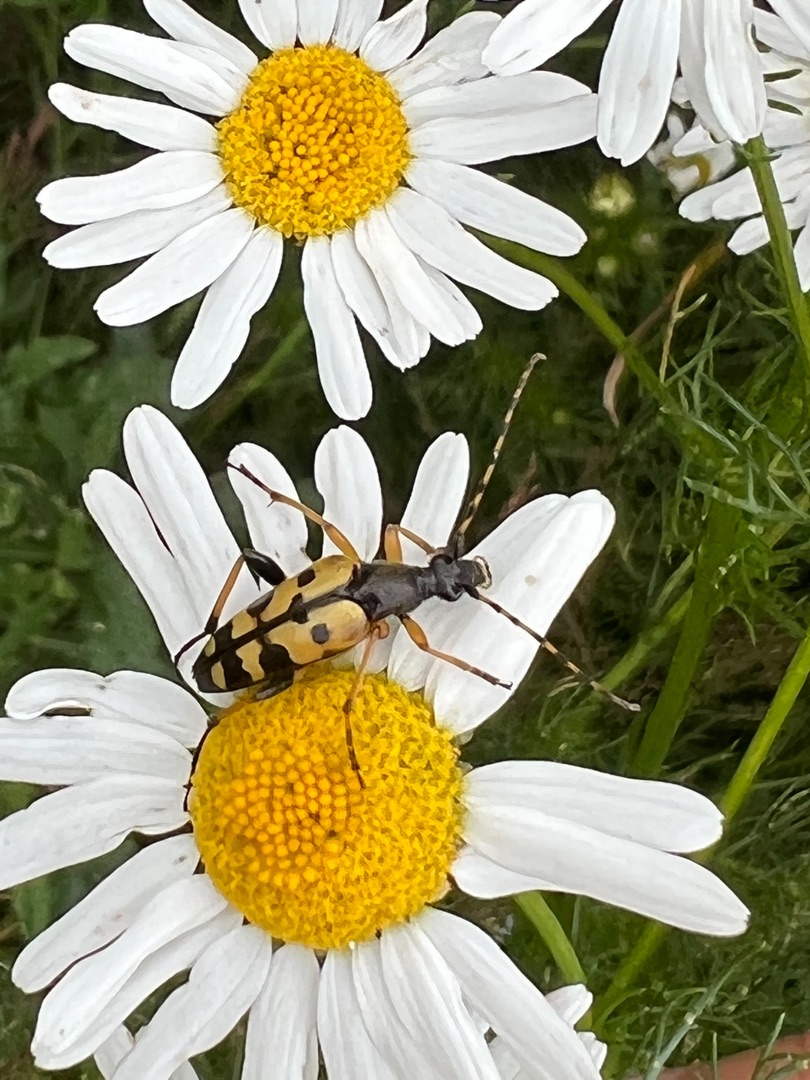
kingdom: Animalia
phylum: Arthropoda
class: Insecta
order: Coleoptera
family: Cerambycidae
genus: Rutpela
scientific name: Rutpela maculata
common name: Sydlig blomsterbuk
